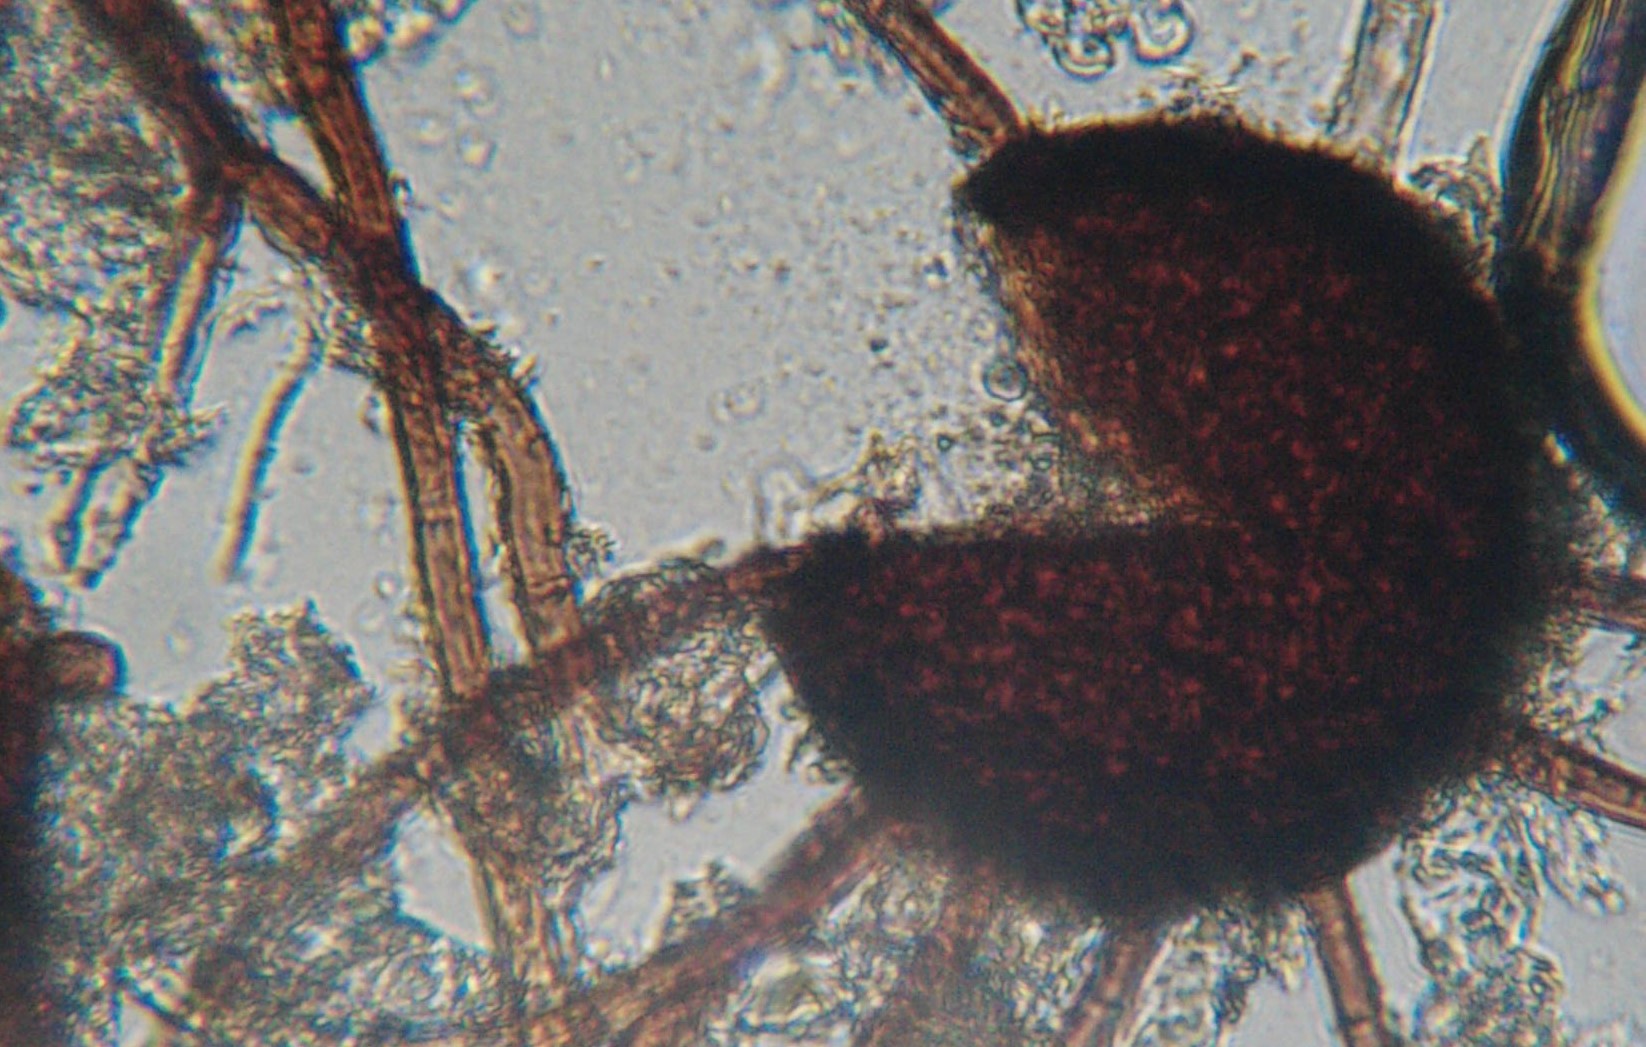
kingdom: Fungi
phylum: Ascomycota
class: Leotiomycetes
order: Helotiales
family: Erysiphaceae
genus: Podosphaera
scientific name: Podosphaera amelanchieris
